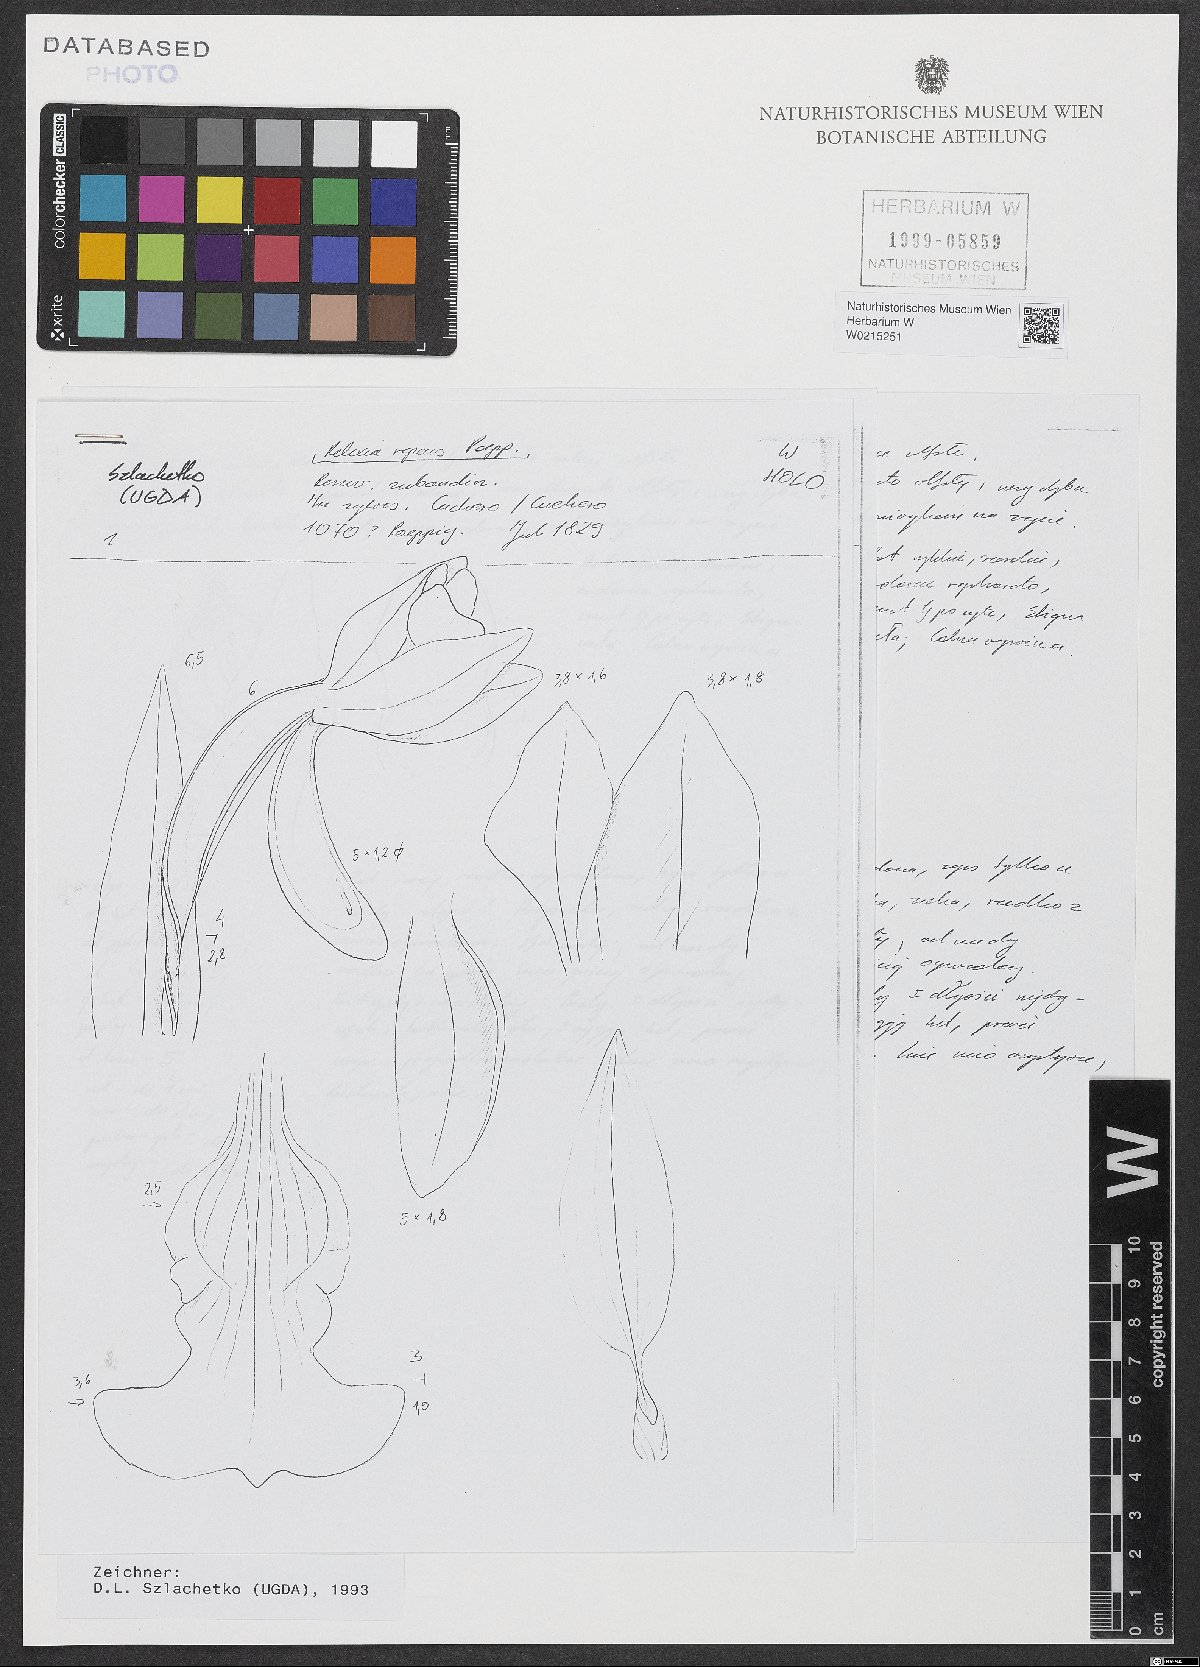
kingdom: Plantae
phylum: Tracheophyta
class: Liliopsida
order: Asparagales
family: Orchidaceae
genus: Aspidogyne
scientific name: Aspidogyne repens
